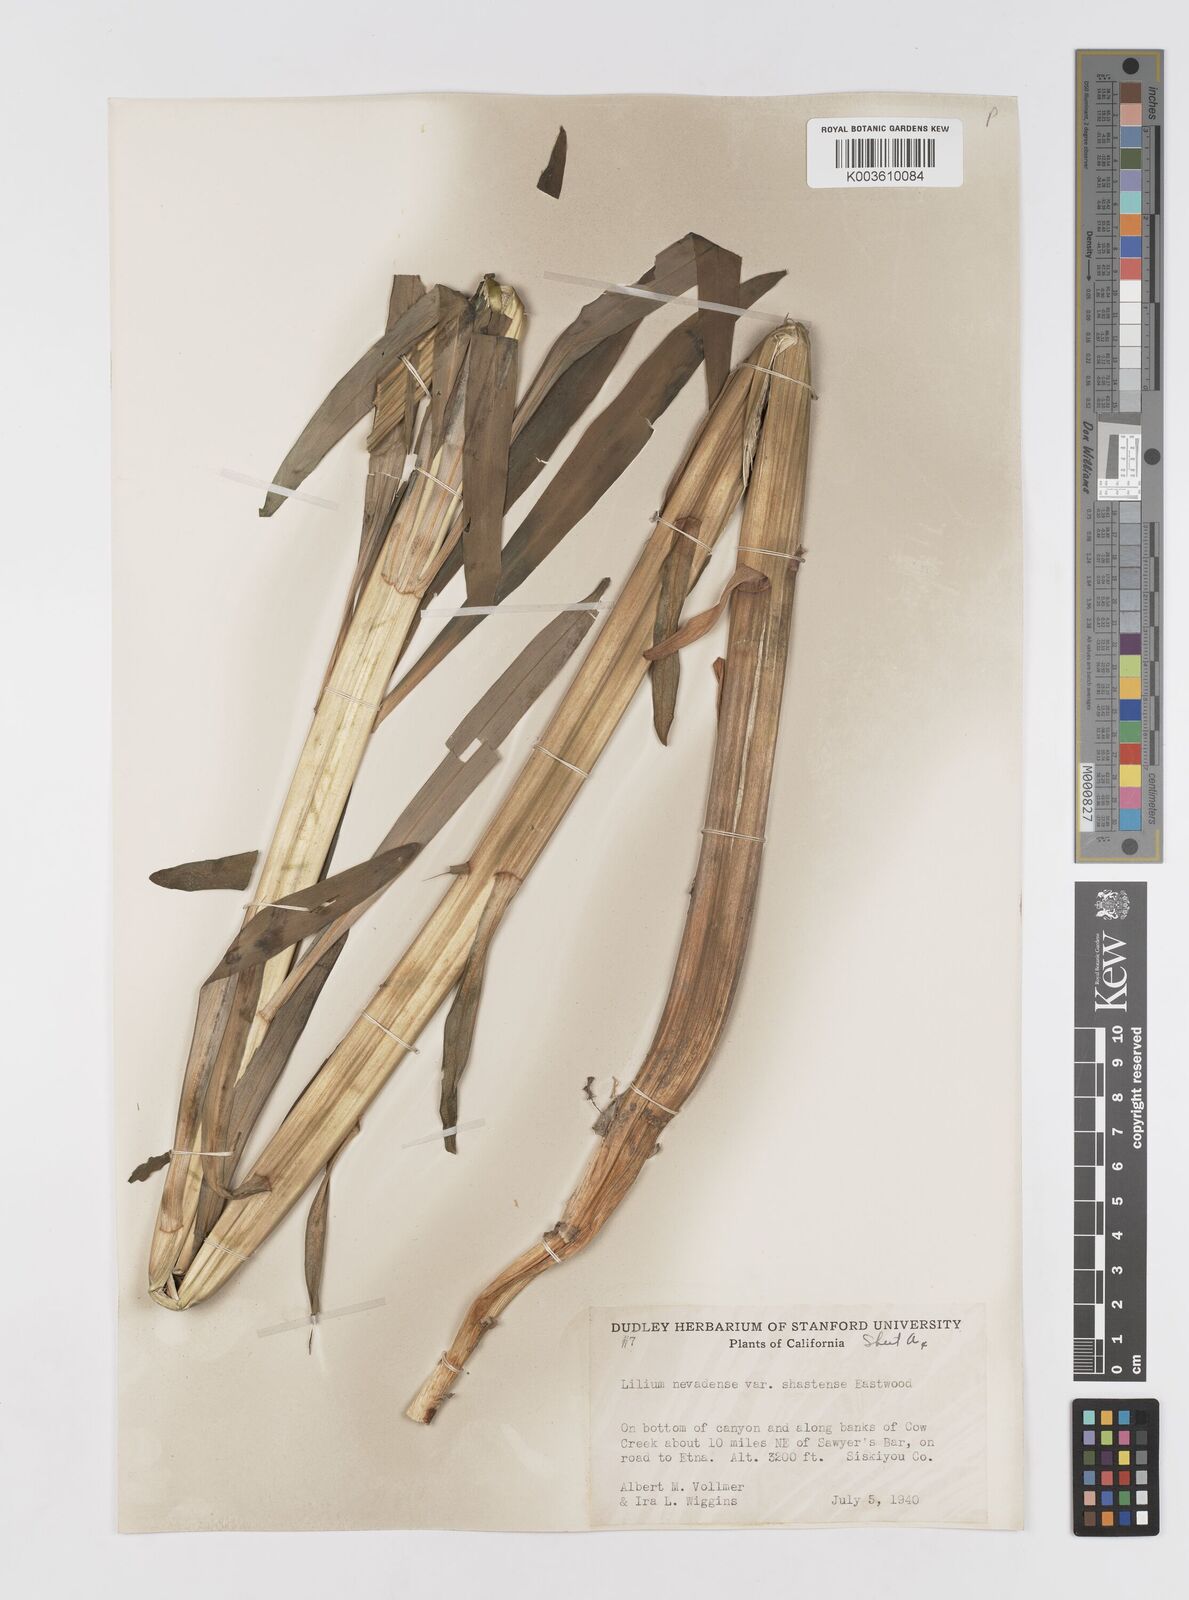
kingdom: Plantae
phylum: Tracheophyta
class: Liliopsida
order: Liliales
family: Liliaceae
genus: Lilium
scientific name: Lilium kelleyanum
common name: Kelley's lily
